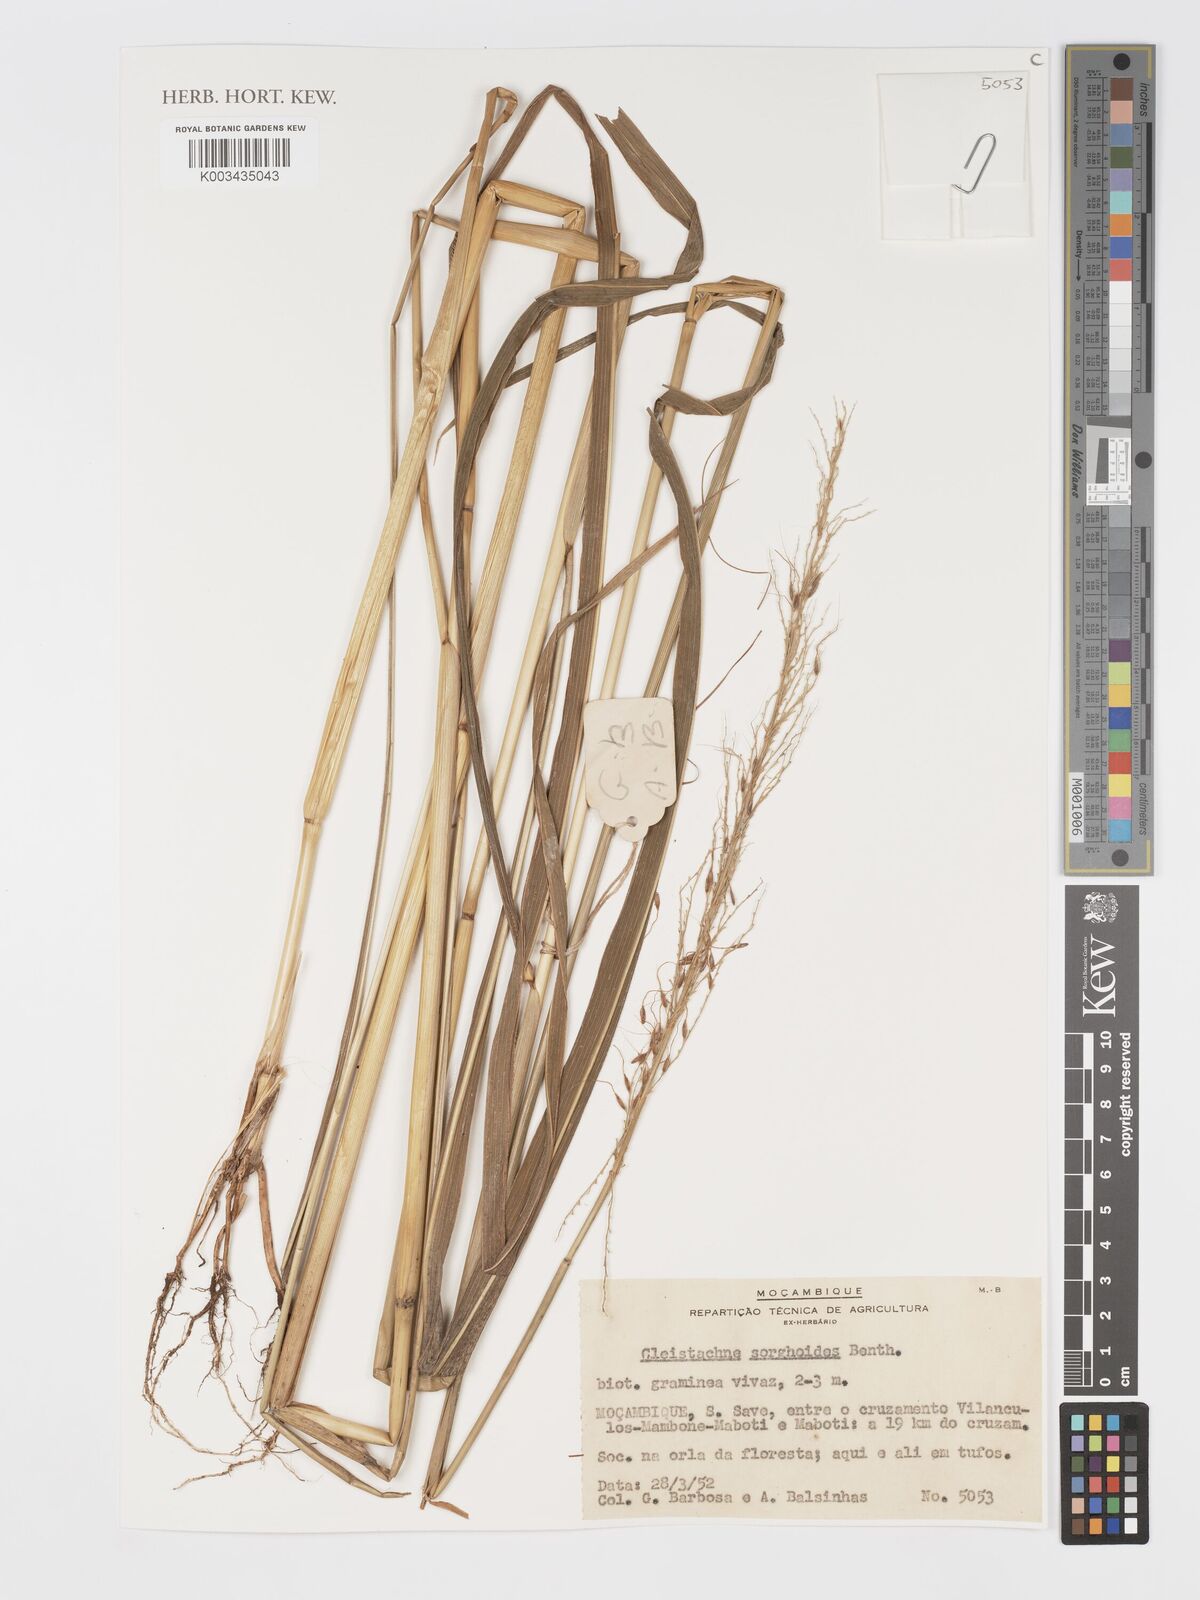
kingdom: Plantae
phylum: Tracheophyta
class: Liliopsida
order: Poales
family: Poaceae
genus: Cleistachne
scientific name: Cleistachne sorghoides
